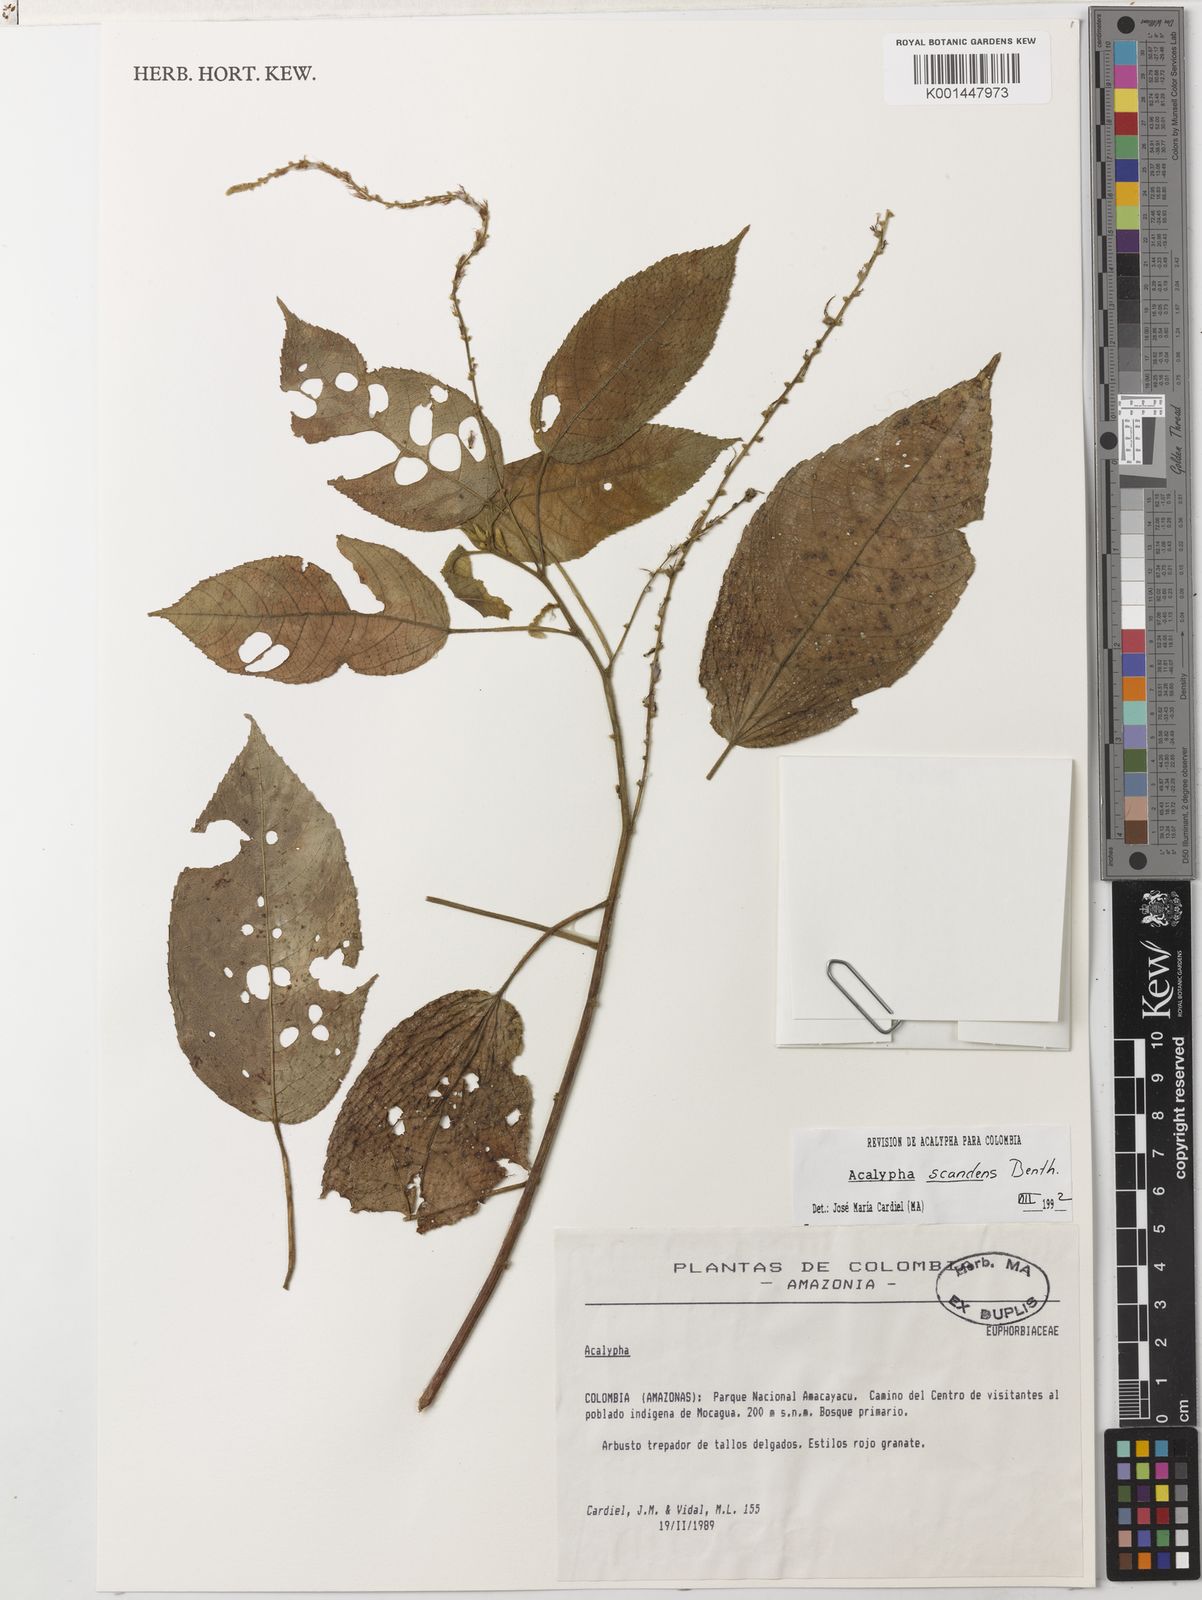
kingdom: Plantae
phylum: Tracheophyta
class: Magnoliopsida
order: Malpighiales
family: Euphorbiaceae
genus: Acalypha
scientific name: Acalypha scandens
